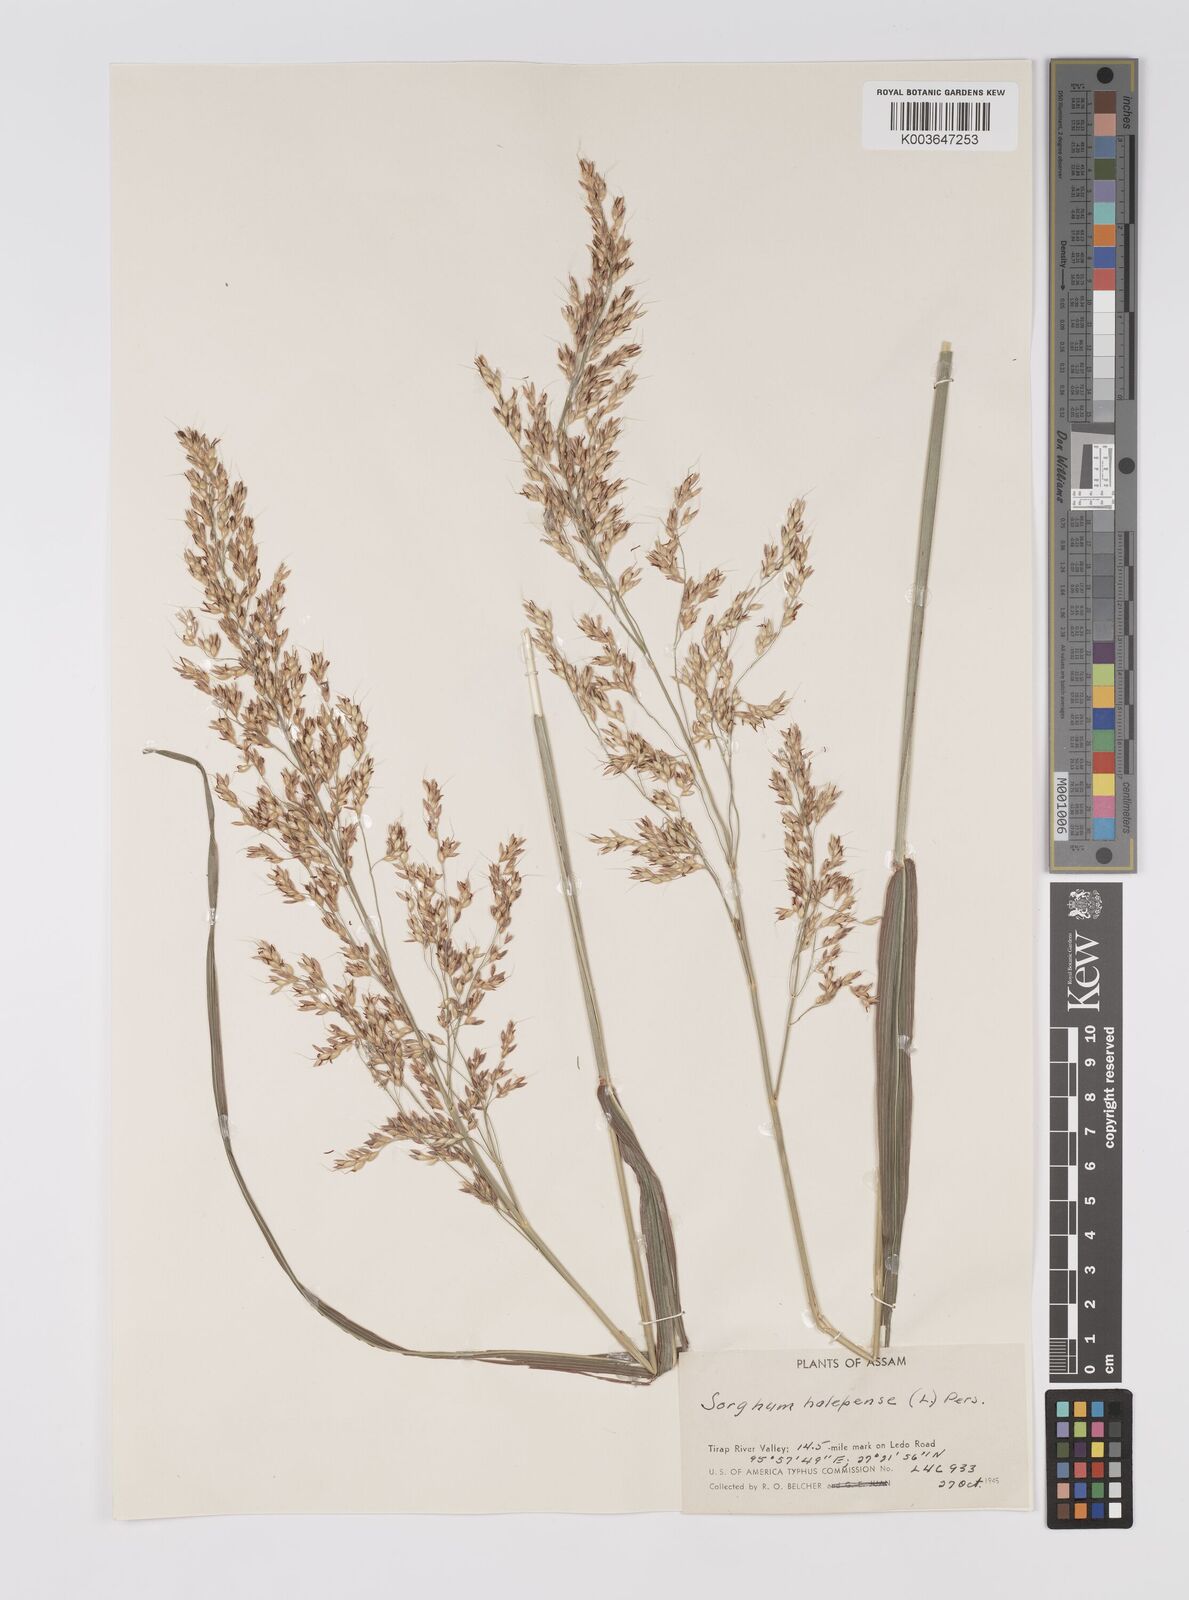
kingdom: Plantae
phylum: Tracheophyta
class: Liliopsida
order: Poales
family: Poaceae
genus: Sorghum
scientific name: Sorghum halepense
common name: Johnson-grass
